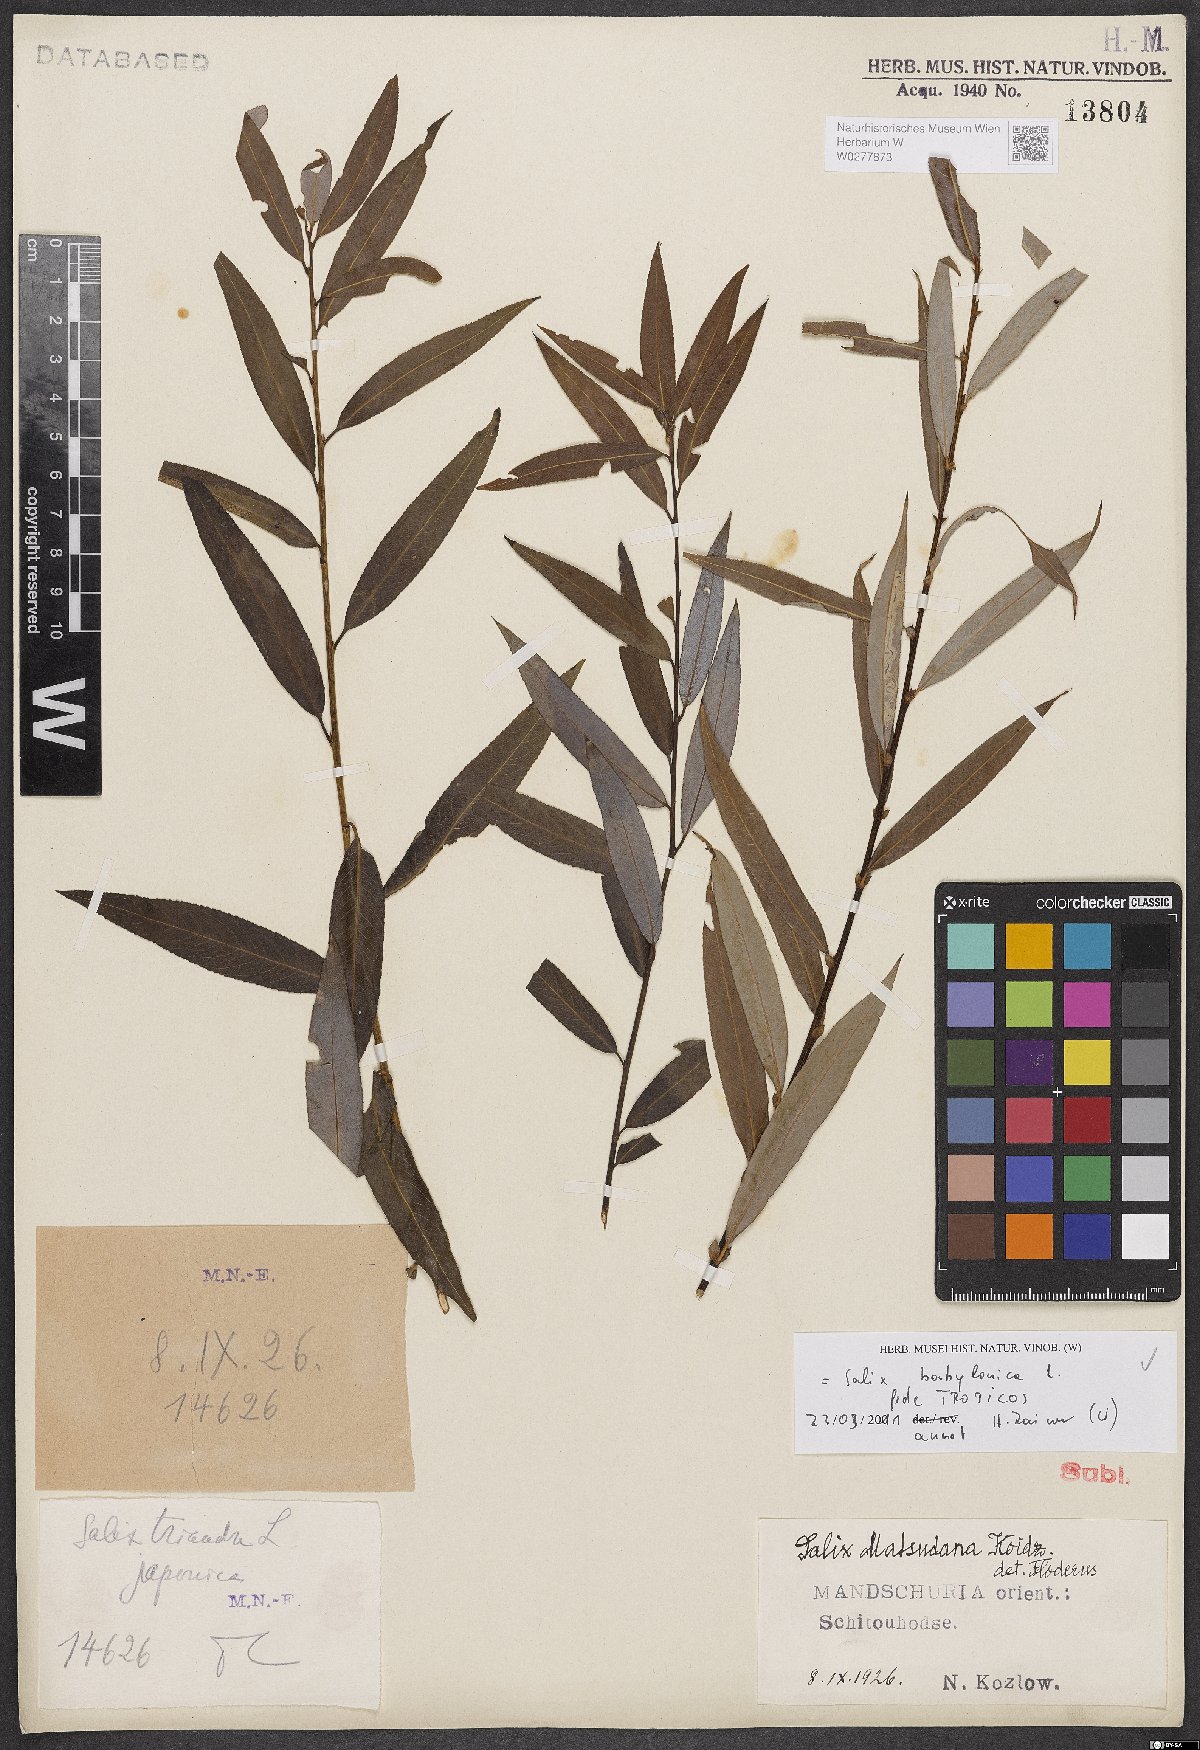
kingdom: Plantae
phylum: Tracheophyta
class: Magnoliopsida
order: Malpighiales
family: Salicaceae
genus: Salix
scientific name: Salix babylonica
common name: Weeping willow
